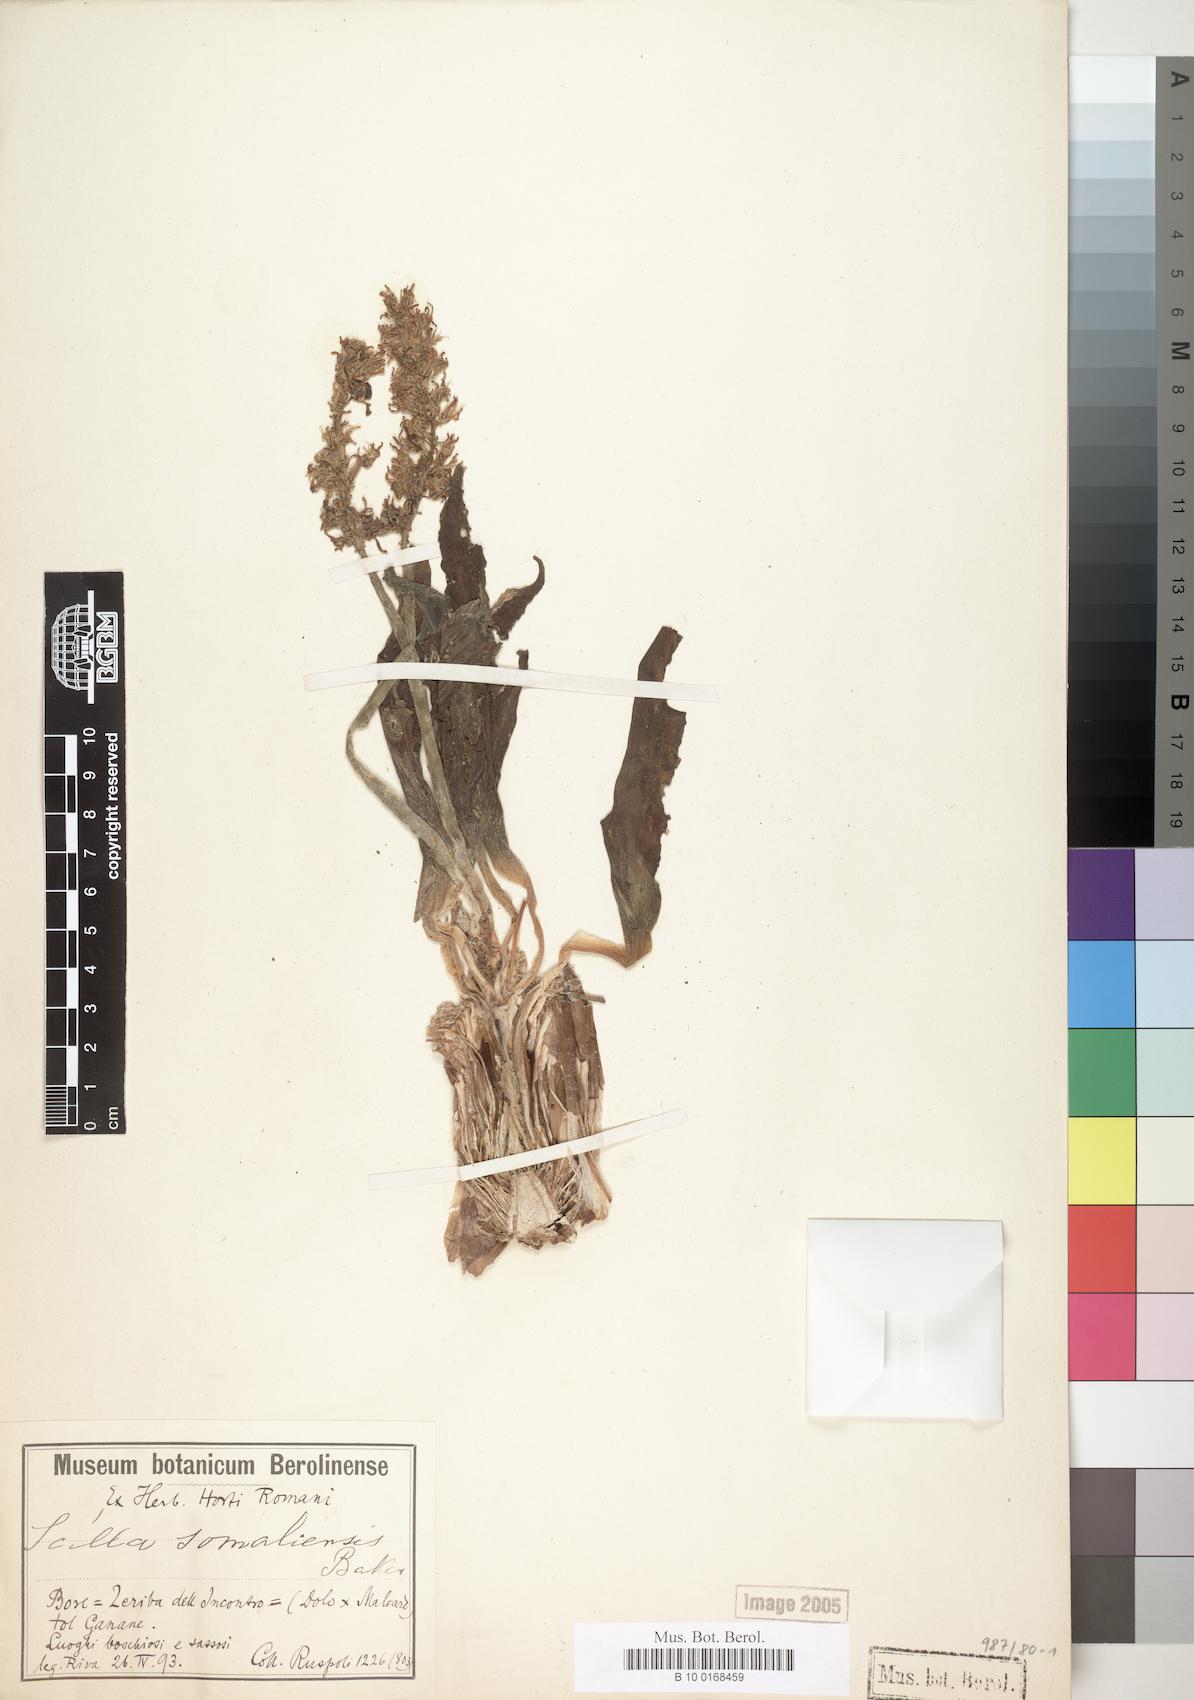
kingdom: Plantae
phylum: Tracheophyta
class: Liliopsida
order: Asparagales
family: Asparagaceae
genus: Ledebouria
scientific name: Ledebouria somaliensis
